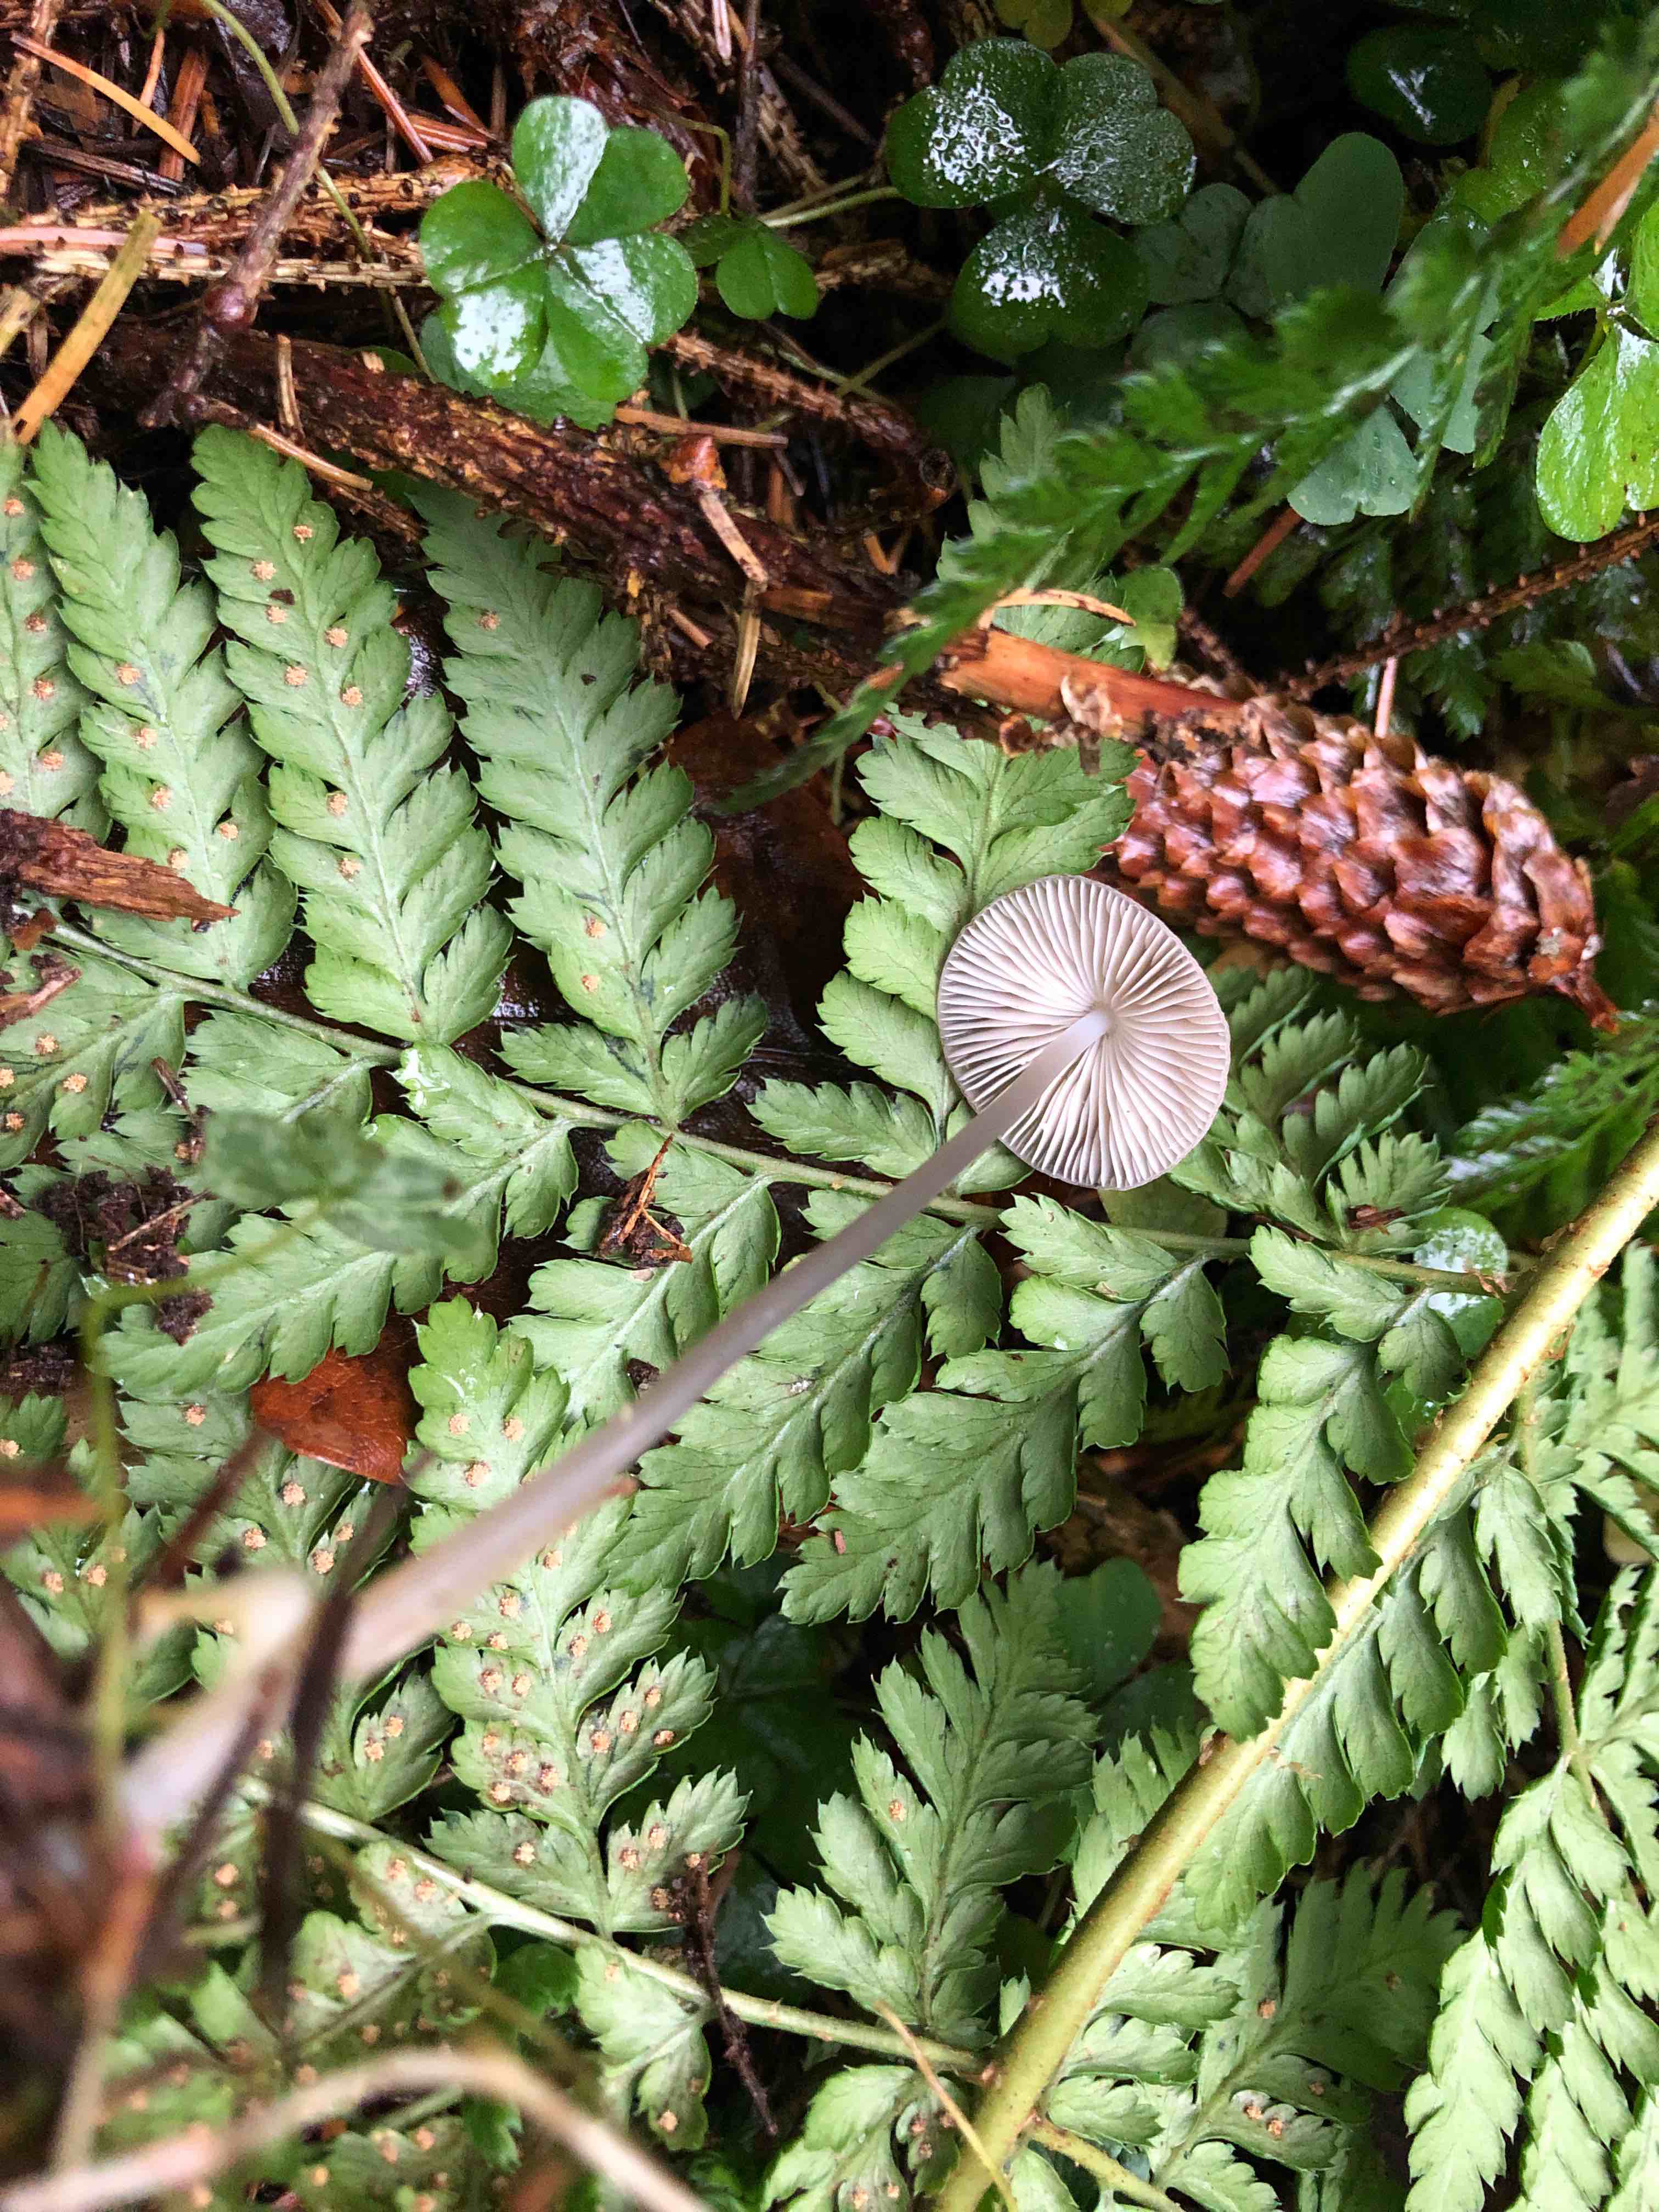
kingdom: Fungi
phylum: Basidiomycota
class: Agaricomycetes
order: Agaricales
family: Mycenaceae
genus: Mycena
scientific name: Mycena
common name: huesvamp
